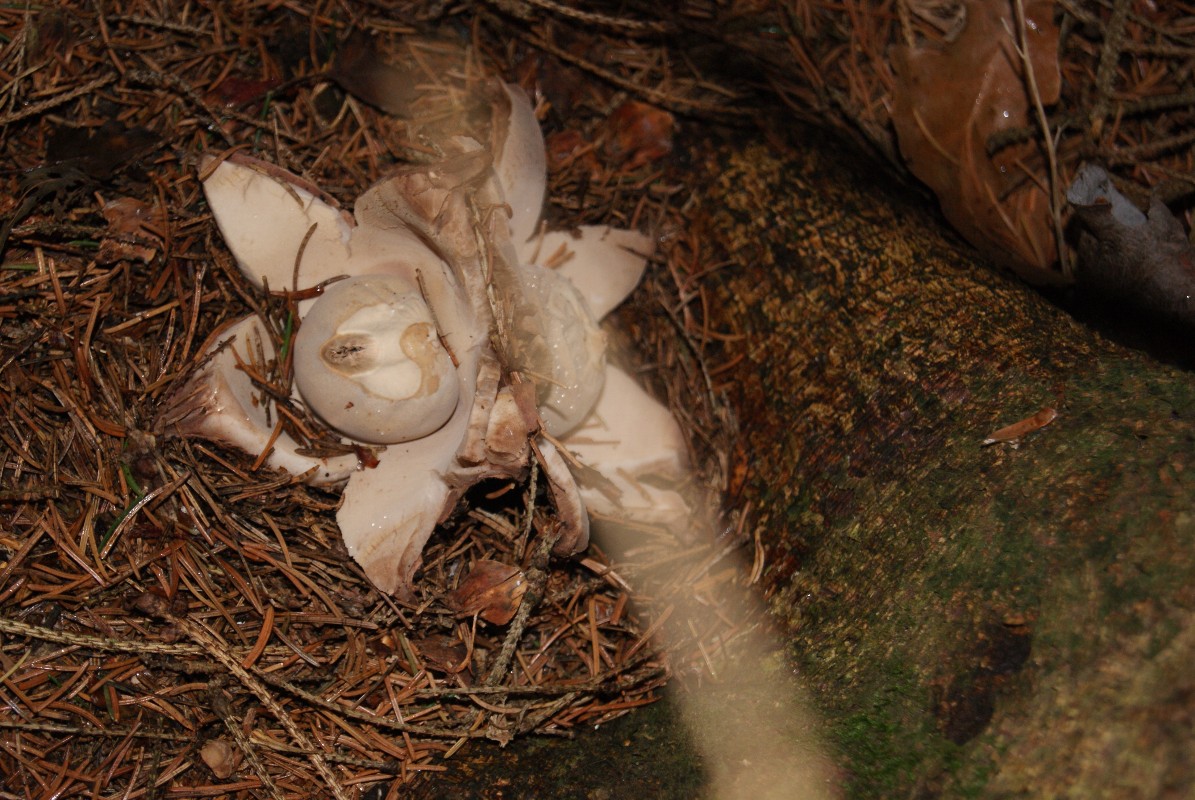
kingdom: Fungi
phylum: Basidiomycota
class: Agaricomycetes
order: Geastrales
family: Geastraceae
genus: Geastrum
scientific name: Geastrum michelianum
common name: kødet stjernebold
